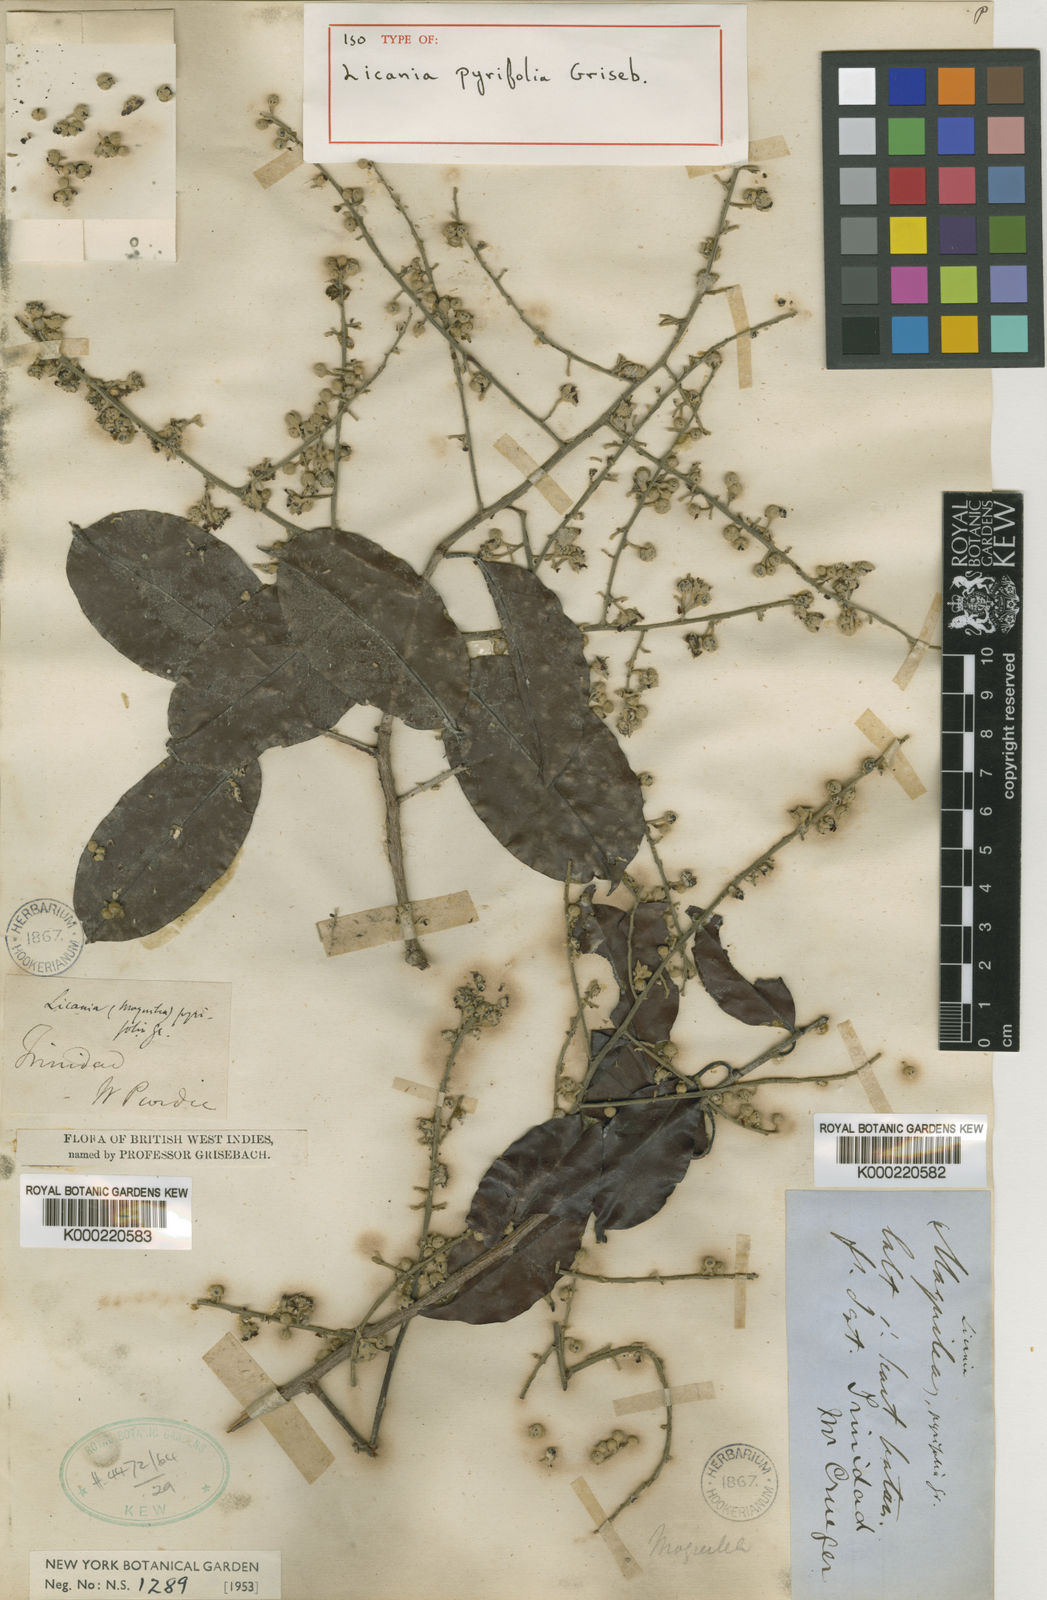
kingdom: Plantae
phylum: Tracheophyta
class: Magnoliopsida
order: Malpighiales
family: Chrysobalanaceae
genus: Moquilea
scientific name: Moquilea pyrifolia
